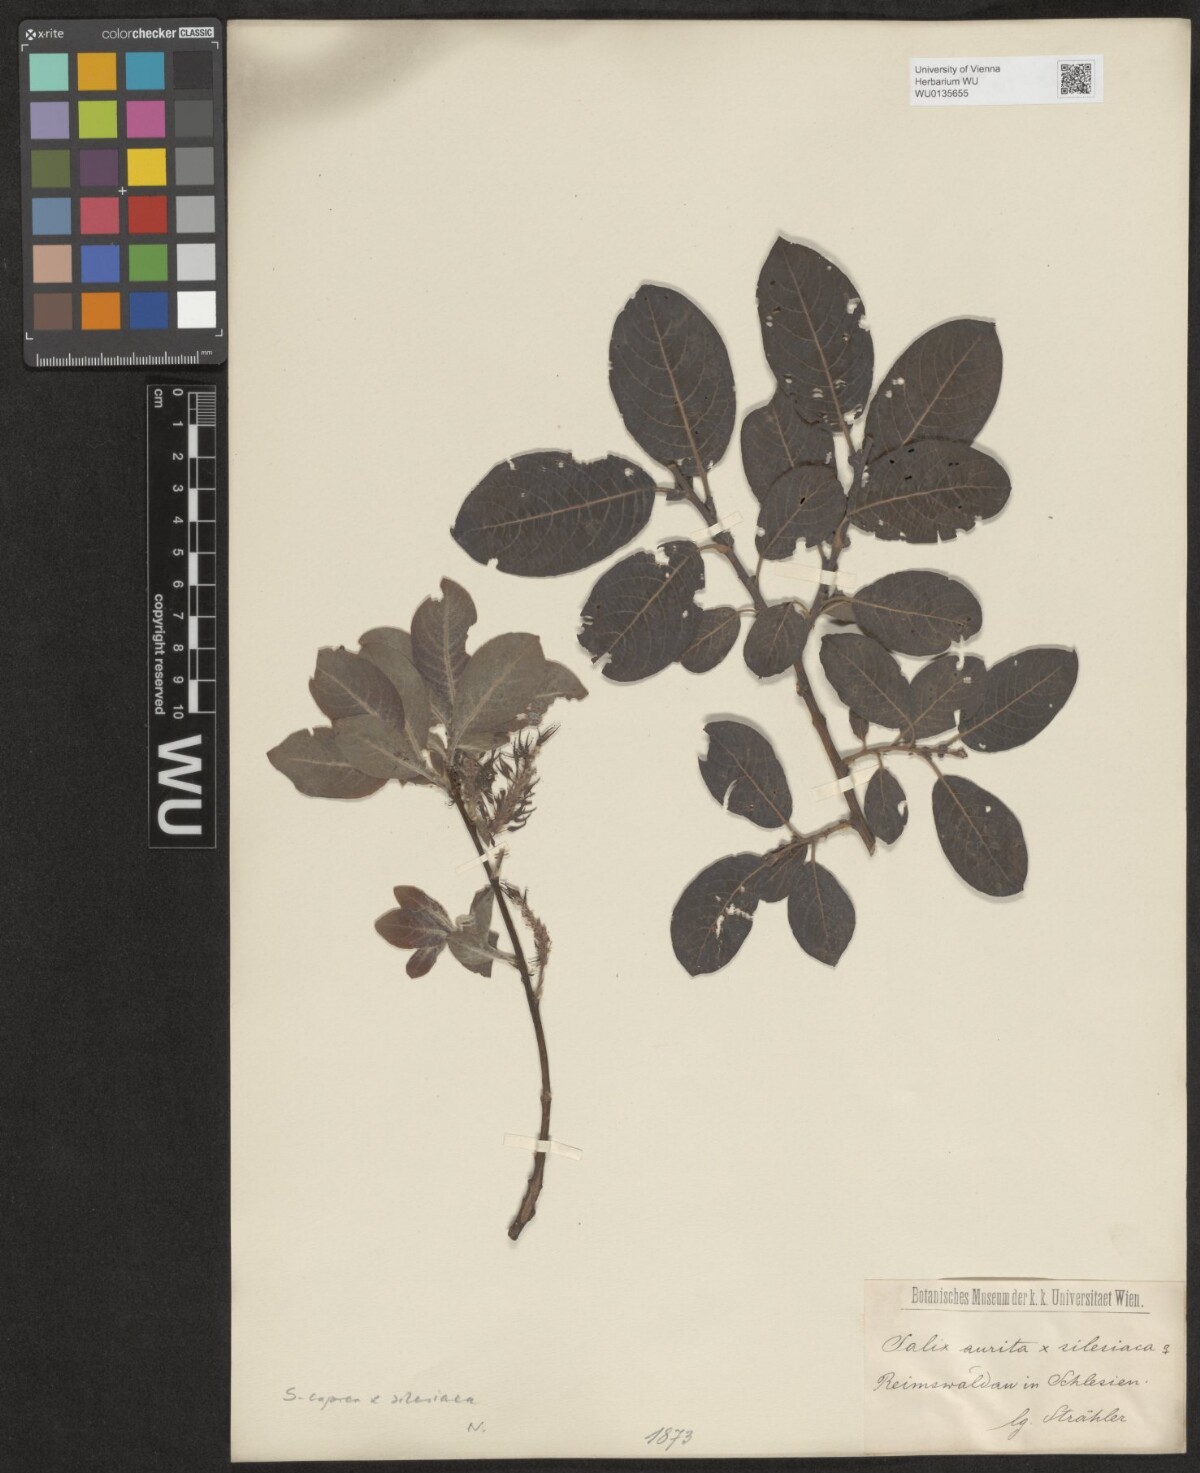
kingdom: Plantae
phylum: Tracheophyta
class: Magnoliopsida
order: Malpighiales
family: Salicaceae
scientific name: Salicaceae
